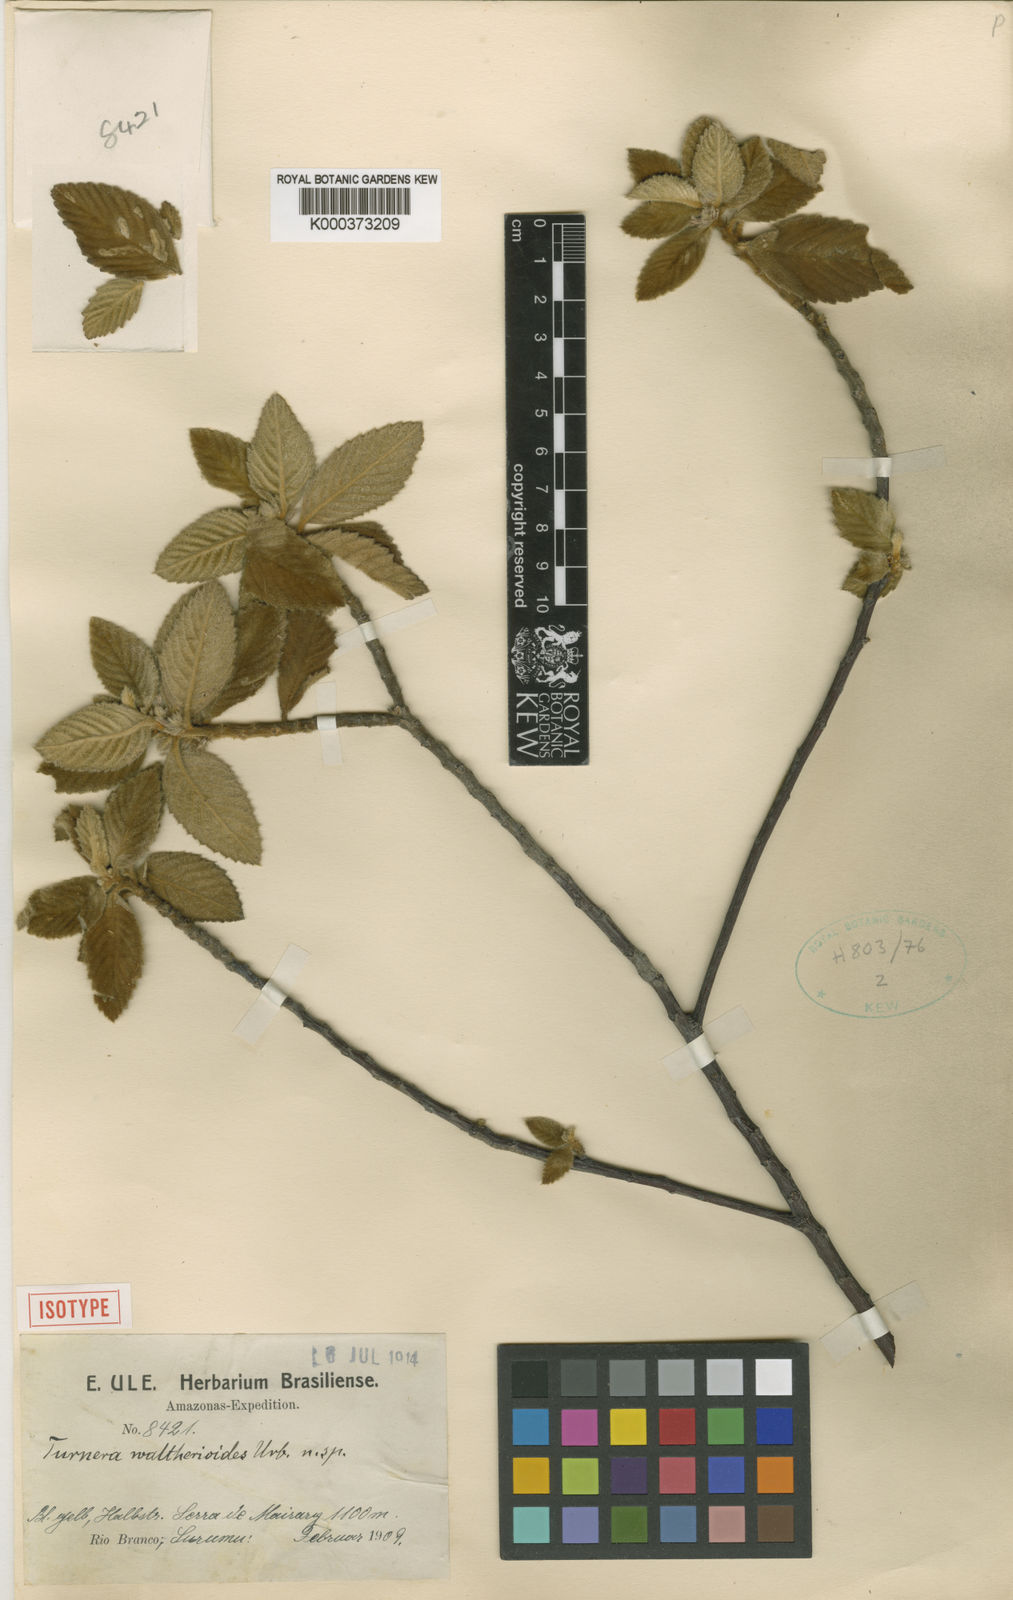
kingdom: Plantae
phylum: Tracheophyta
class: Magnoliopsida
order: Malpighiales
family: Turneraceae
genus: Oxossia
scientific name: Oxossia waltherioides
